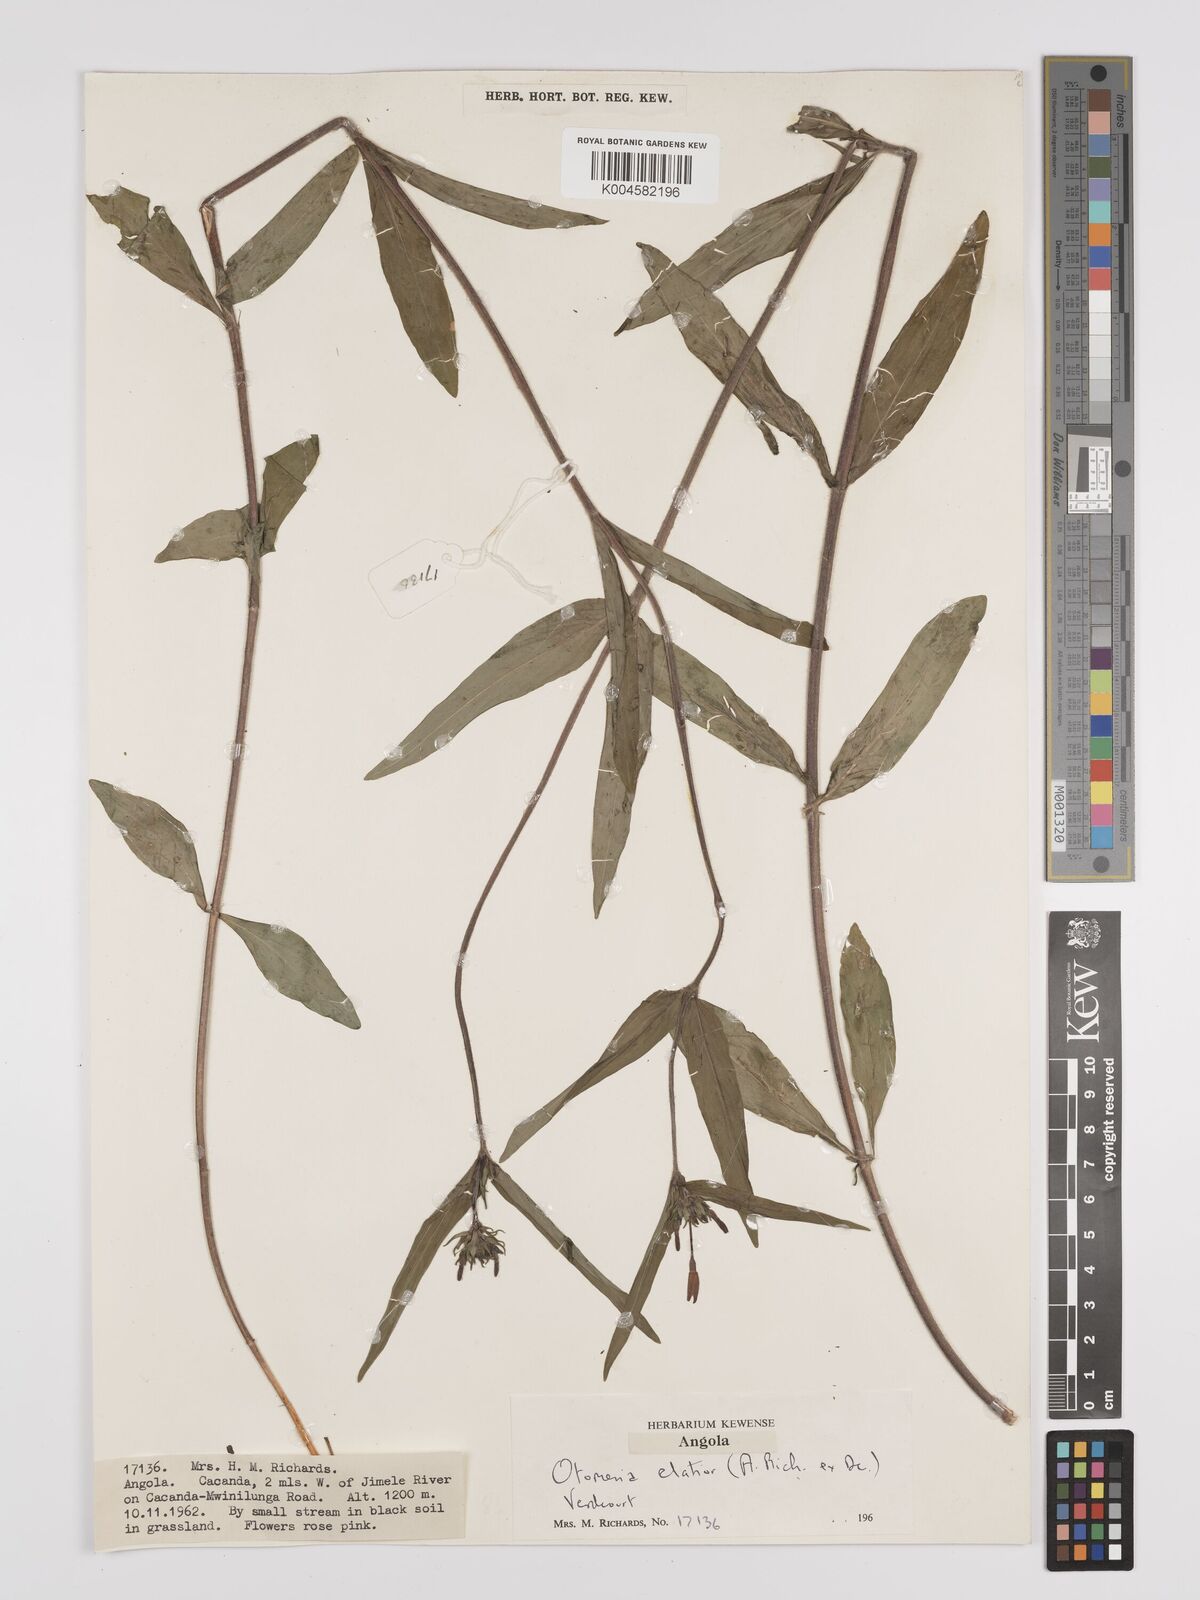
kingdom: Plantae
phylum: Tracheophyta
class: Magnoliopsida
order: Gentianales
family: Rubiaceae
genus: Otomeria
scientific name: Otomeria elatior
